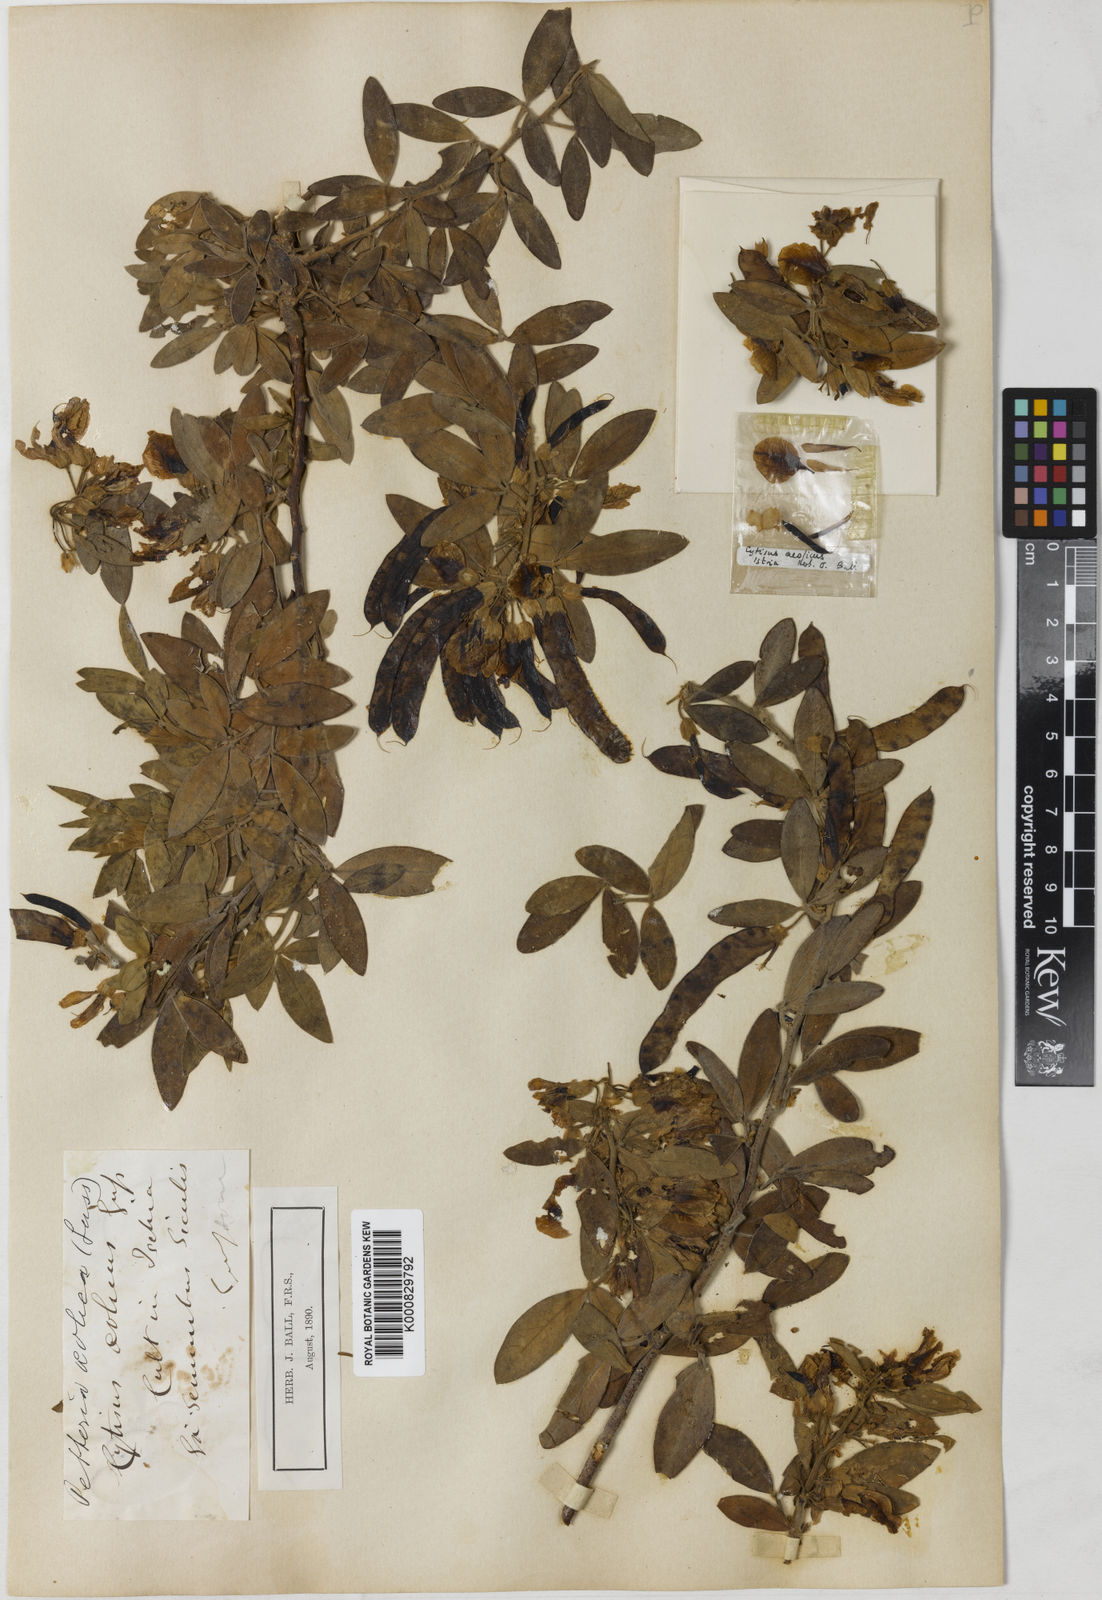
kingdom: Plantae
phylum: Tracheophyta
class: Magnoliopsida
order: Fabales
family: Fabaceae
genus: Cytisus
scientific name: Cytisus aeolicus
